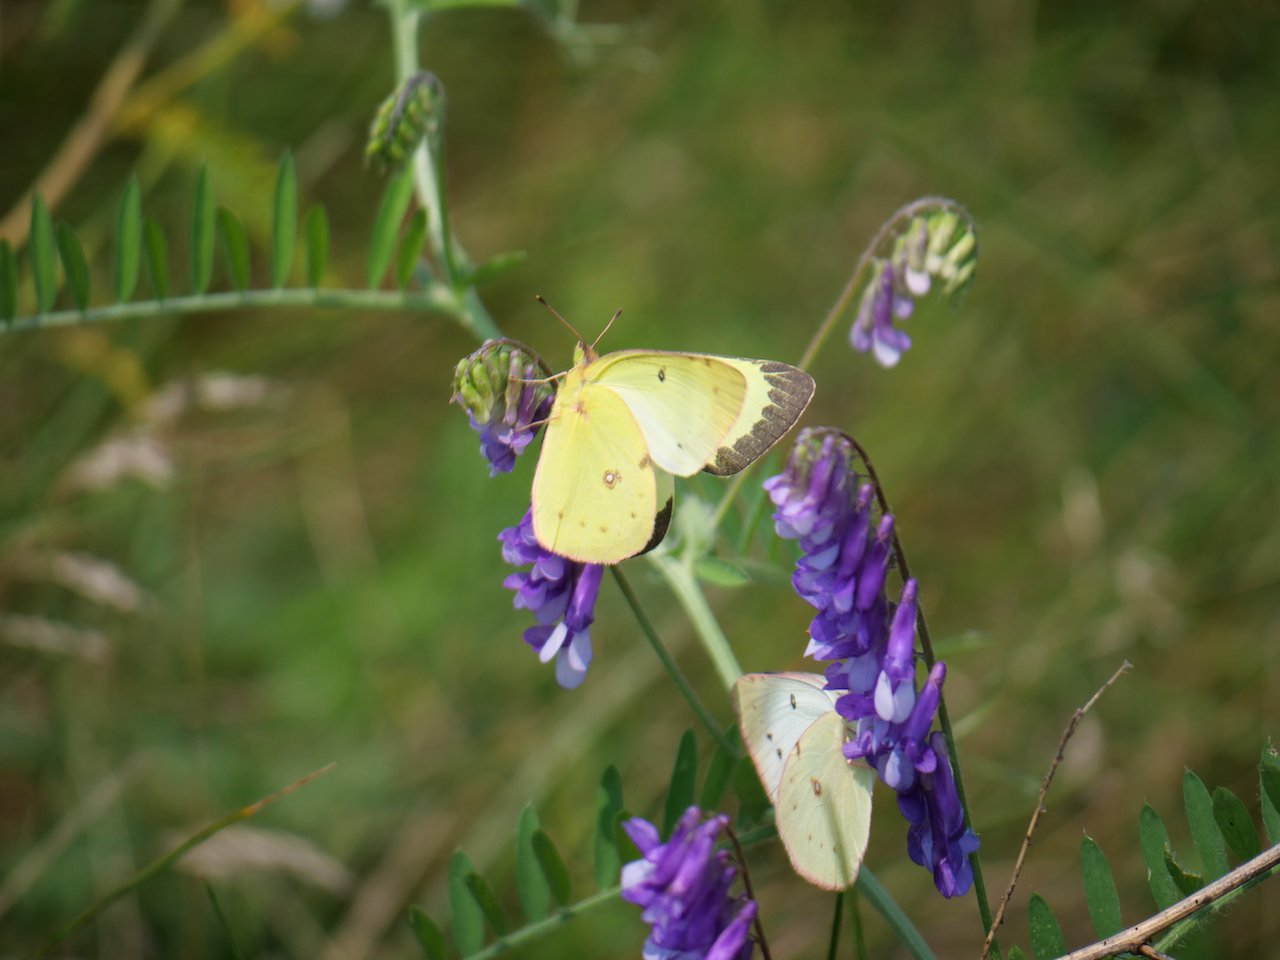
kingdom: Animalia
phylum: Arthropoda
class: Insecta
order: Lepidoptera
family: Pieridae
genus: Colias
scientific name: Colias philodice
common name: Clouded Sulphur
